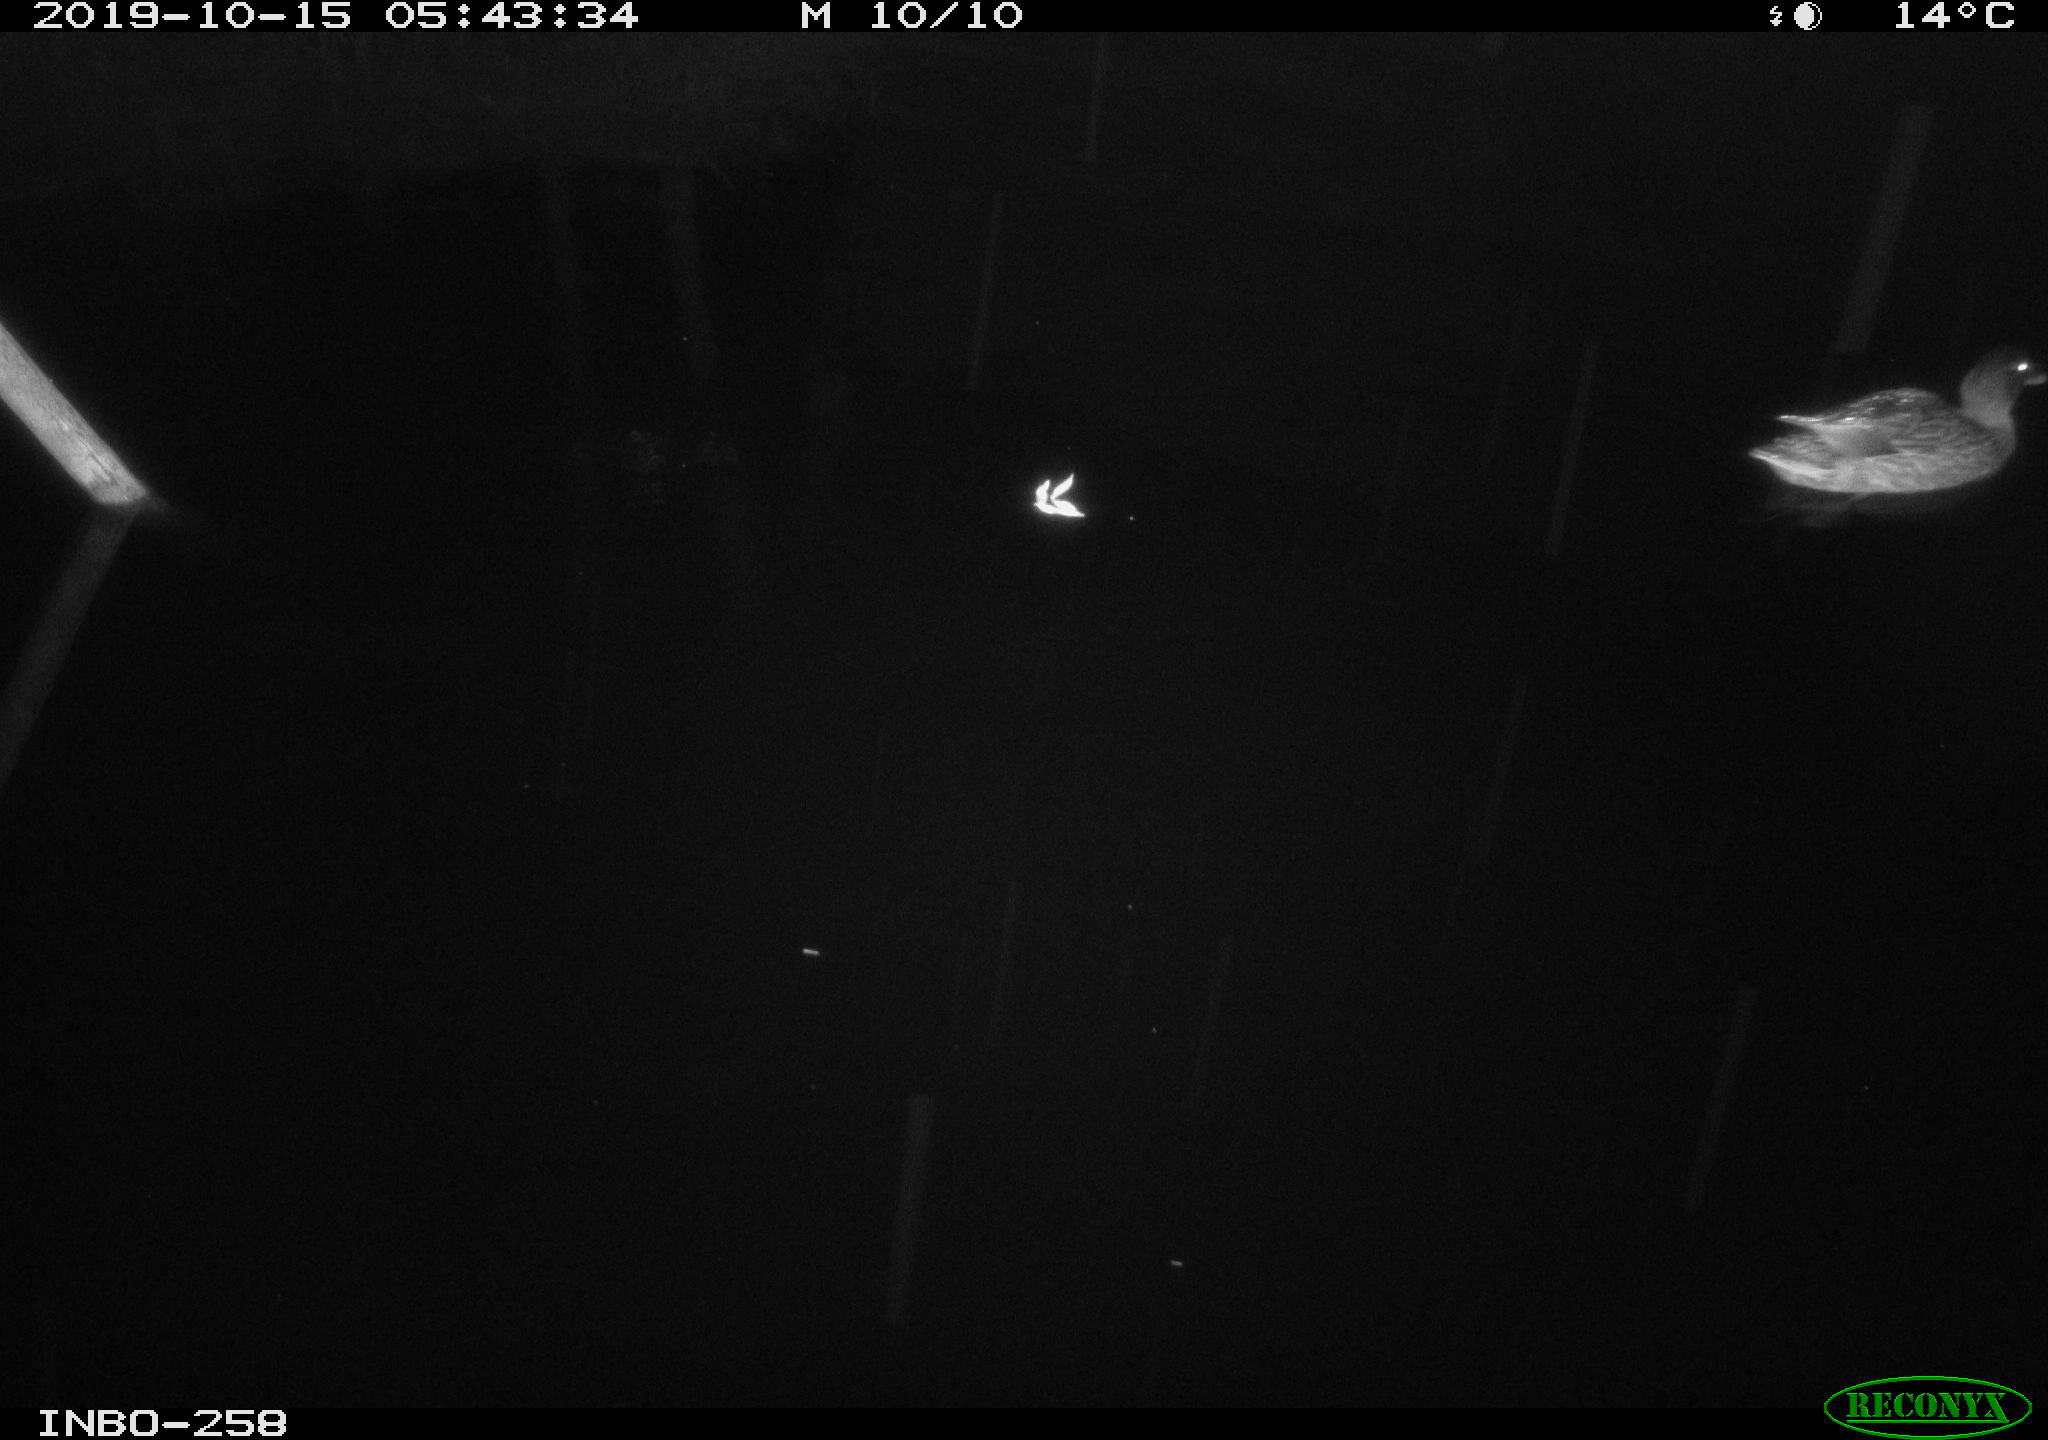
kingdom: Animalia
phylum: Chordata
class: Aves
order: Anseriformes
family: Anatidae
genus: Anas
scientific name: Anas platyrhynchos
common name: Mallard
